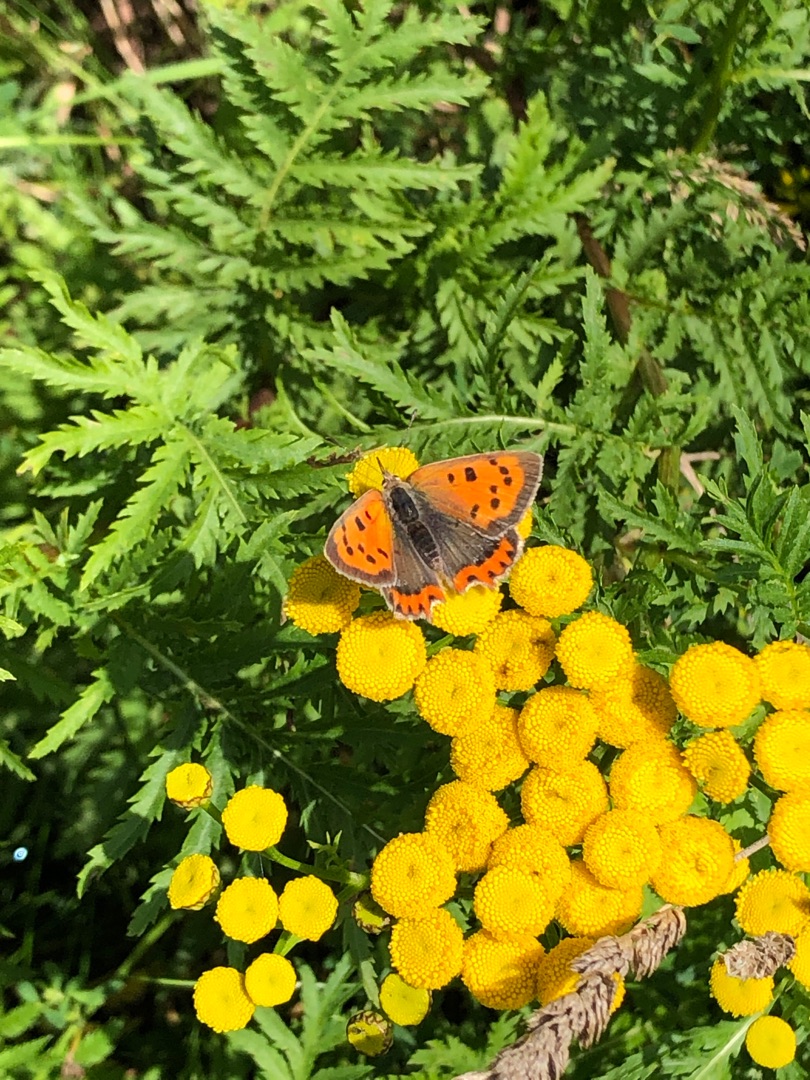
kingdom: Animalia
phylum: Arthropoda
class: Insecta
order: Lepidoptera
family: Lycaenidae
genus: Lycaena
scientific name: Lycaena phlaeas
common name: Lille ildfugl
